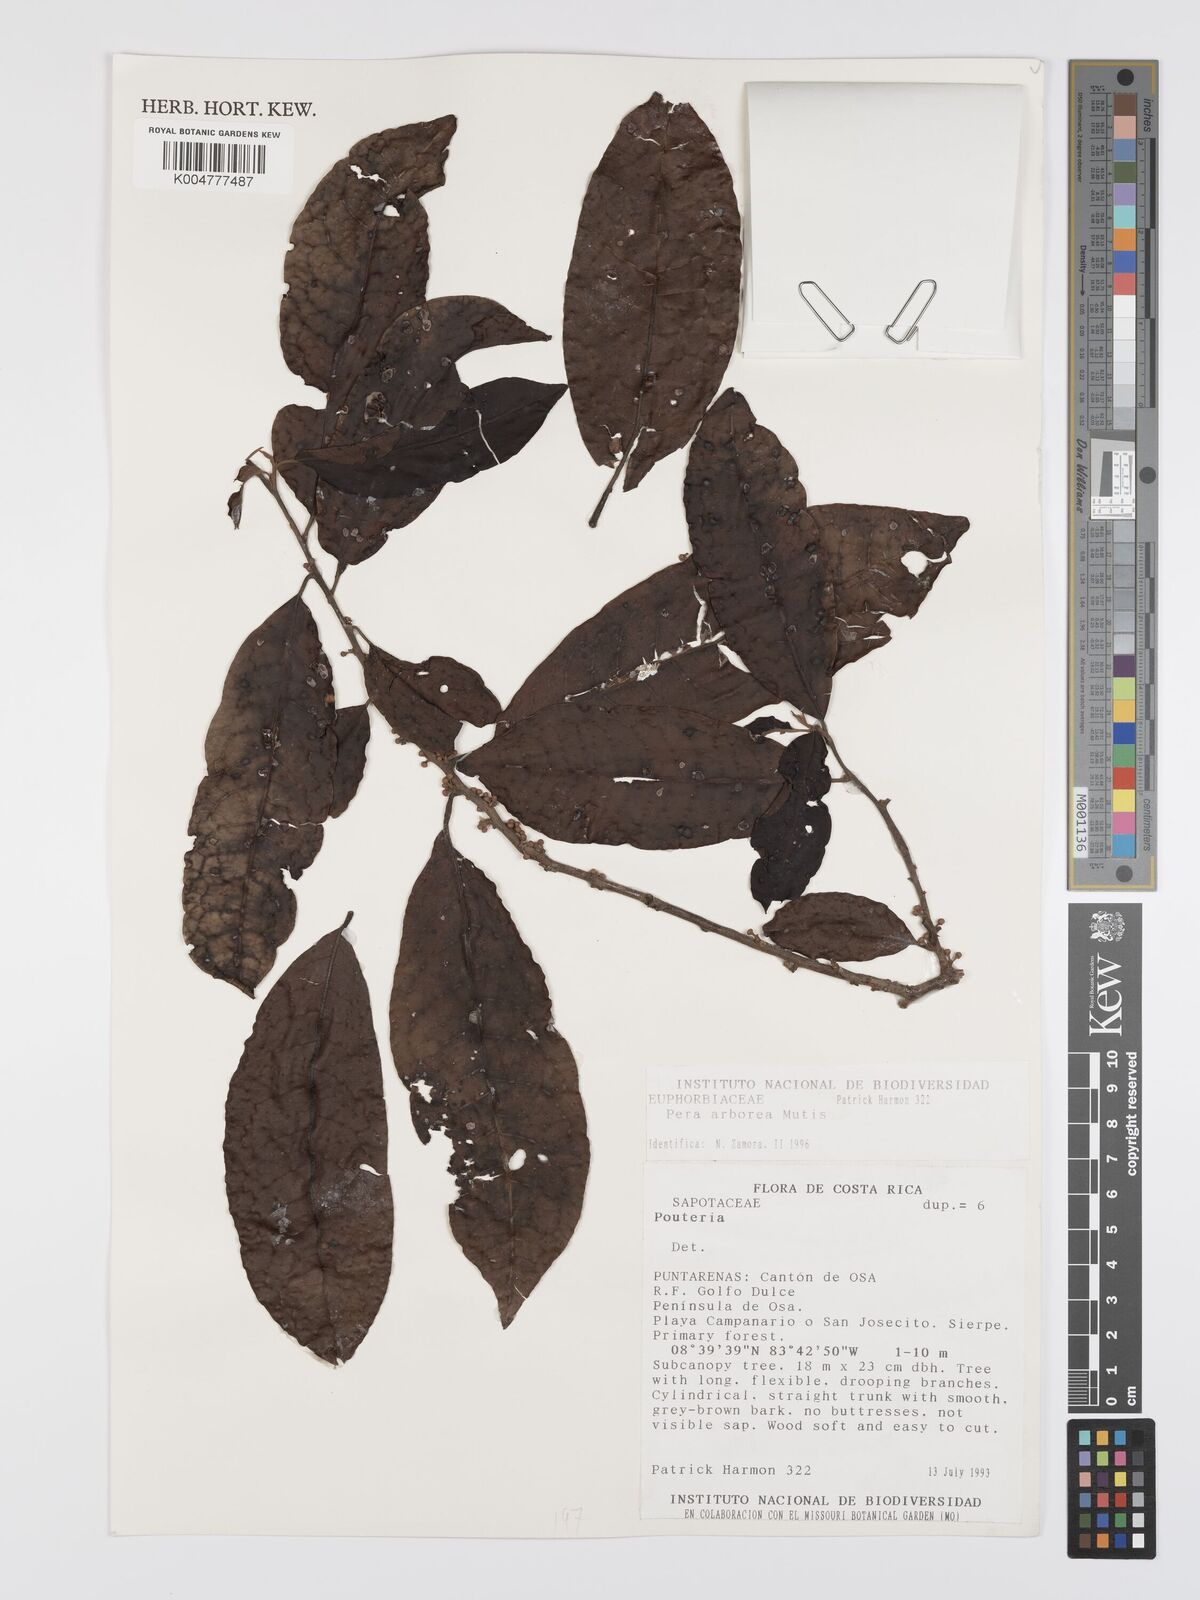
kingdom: Plantae
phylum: Tracheophyta
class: Magnoliopsida
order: Malpighiales
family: Peraceae
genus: Pera
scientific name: Pera
